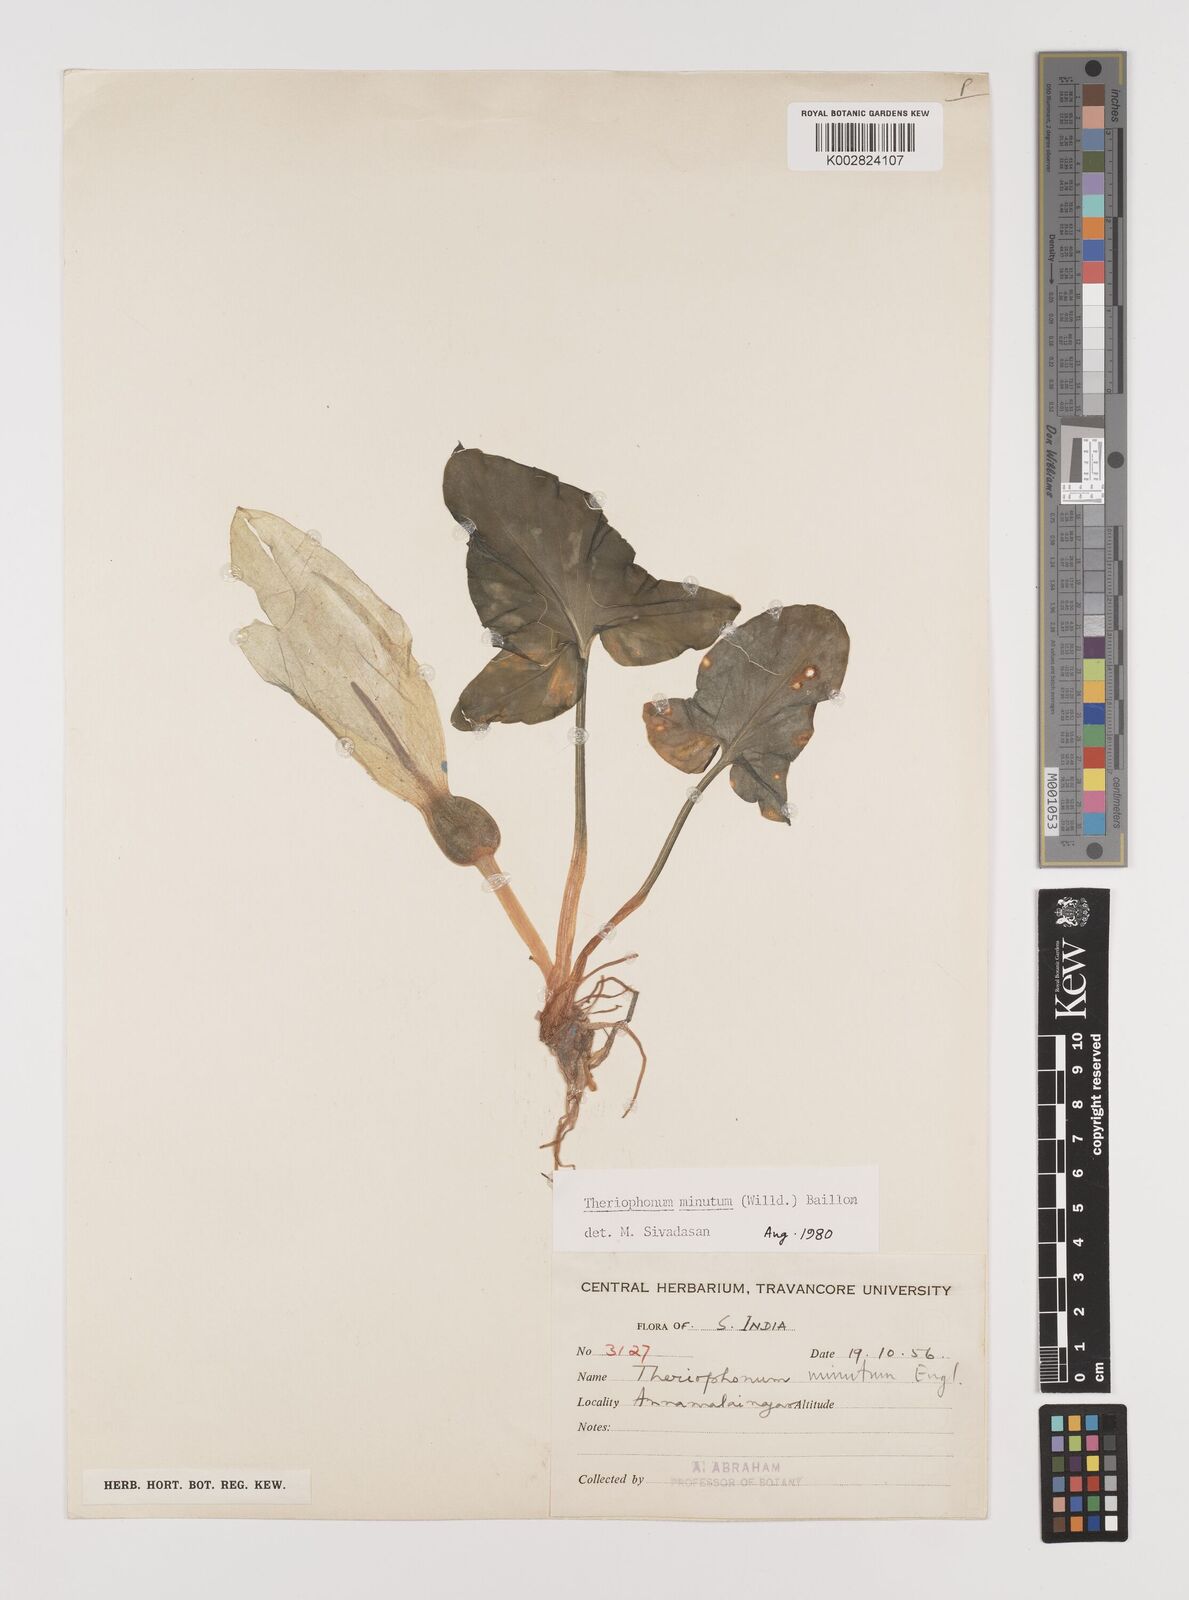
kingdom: Plantae
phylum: Tracheophyta
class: Liliopsida
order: Alismatales
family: Araceae
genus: Theriophonum
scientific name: Theriophonum minutum
